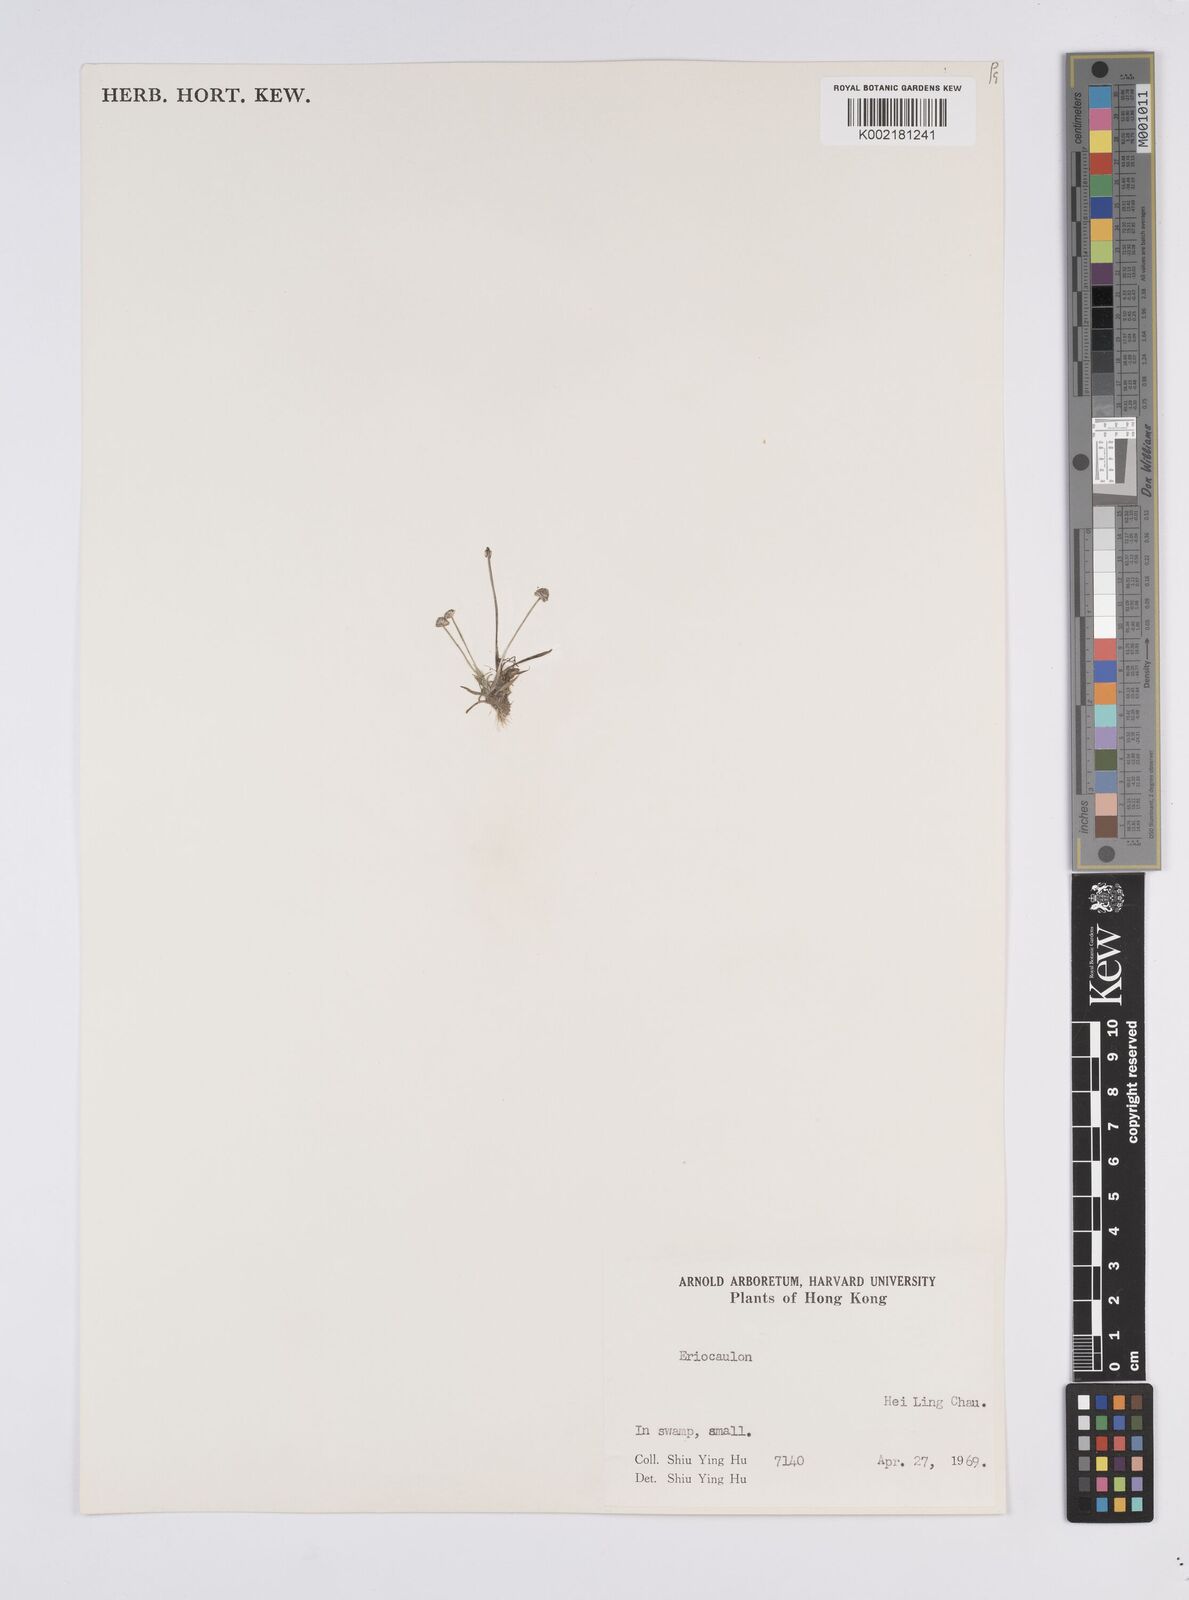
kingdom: Plantae
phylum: Tracheophyta
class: Liliopsida
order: Poales
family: Eriocaulaceae
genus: Eriocaulon
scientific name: Eriocaulon
